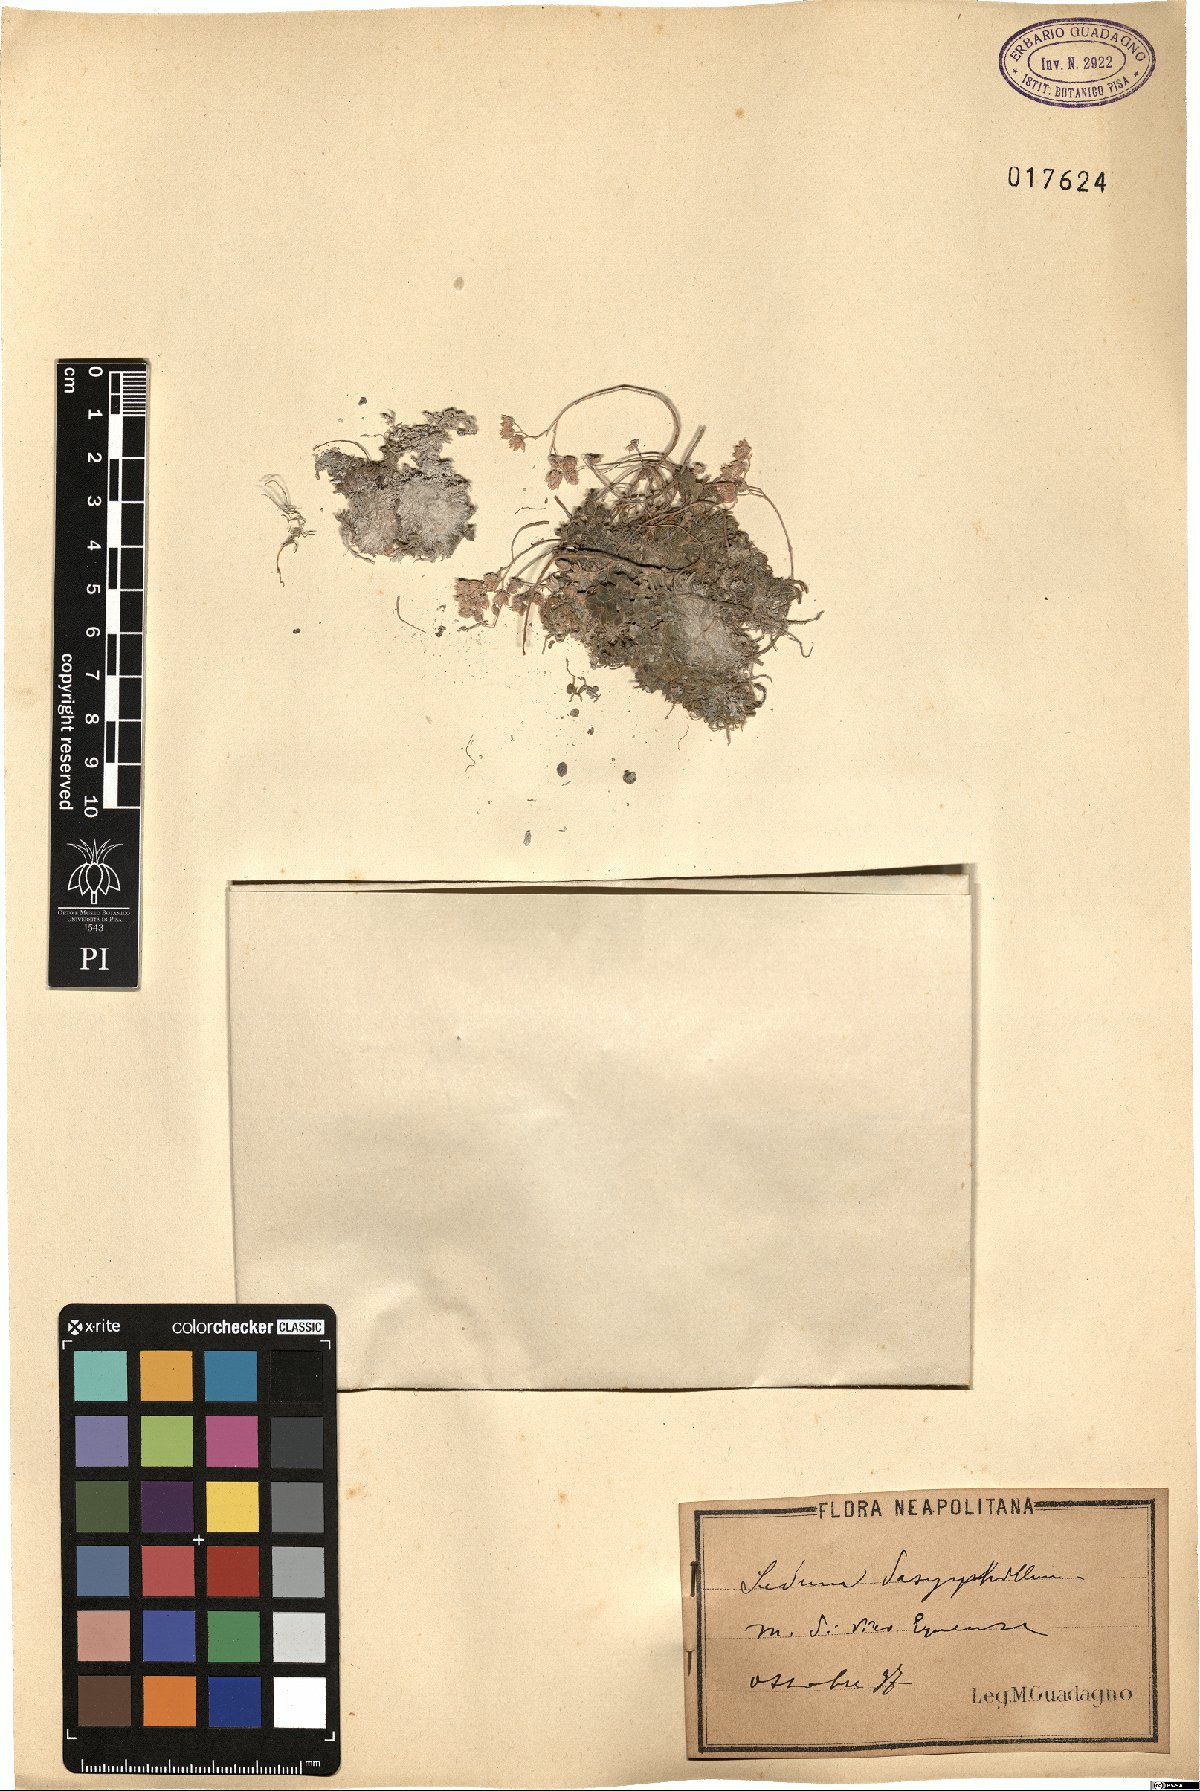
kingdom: Plantae
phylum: Tracheophyta
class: Magnoliopsida
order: Saxifragales
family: Crassulaceae
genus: Sedum
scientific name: Sedum dasyphyllum
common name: Thick-leaf stonecrop
